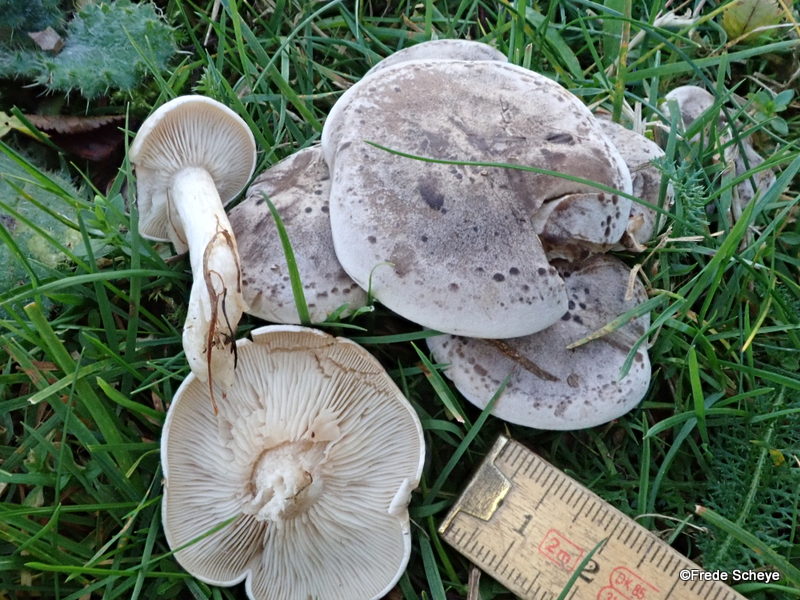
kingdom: Fungi
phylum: Basidiomycota
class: Agaricomycetes
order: Agaricales
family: Tricholomataceae
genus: Lepista
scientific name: Lepista panaeolus
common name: marmoreret hekseringshat
